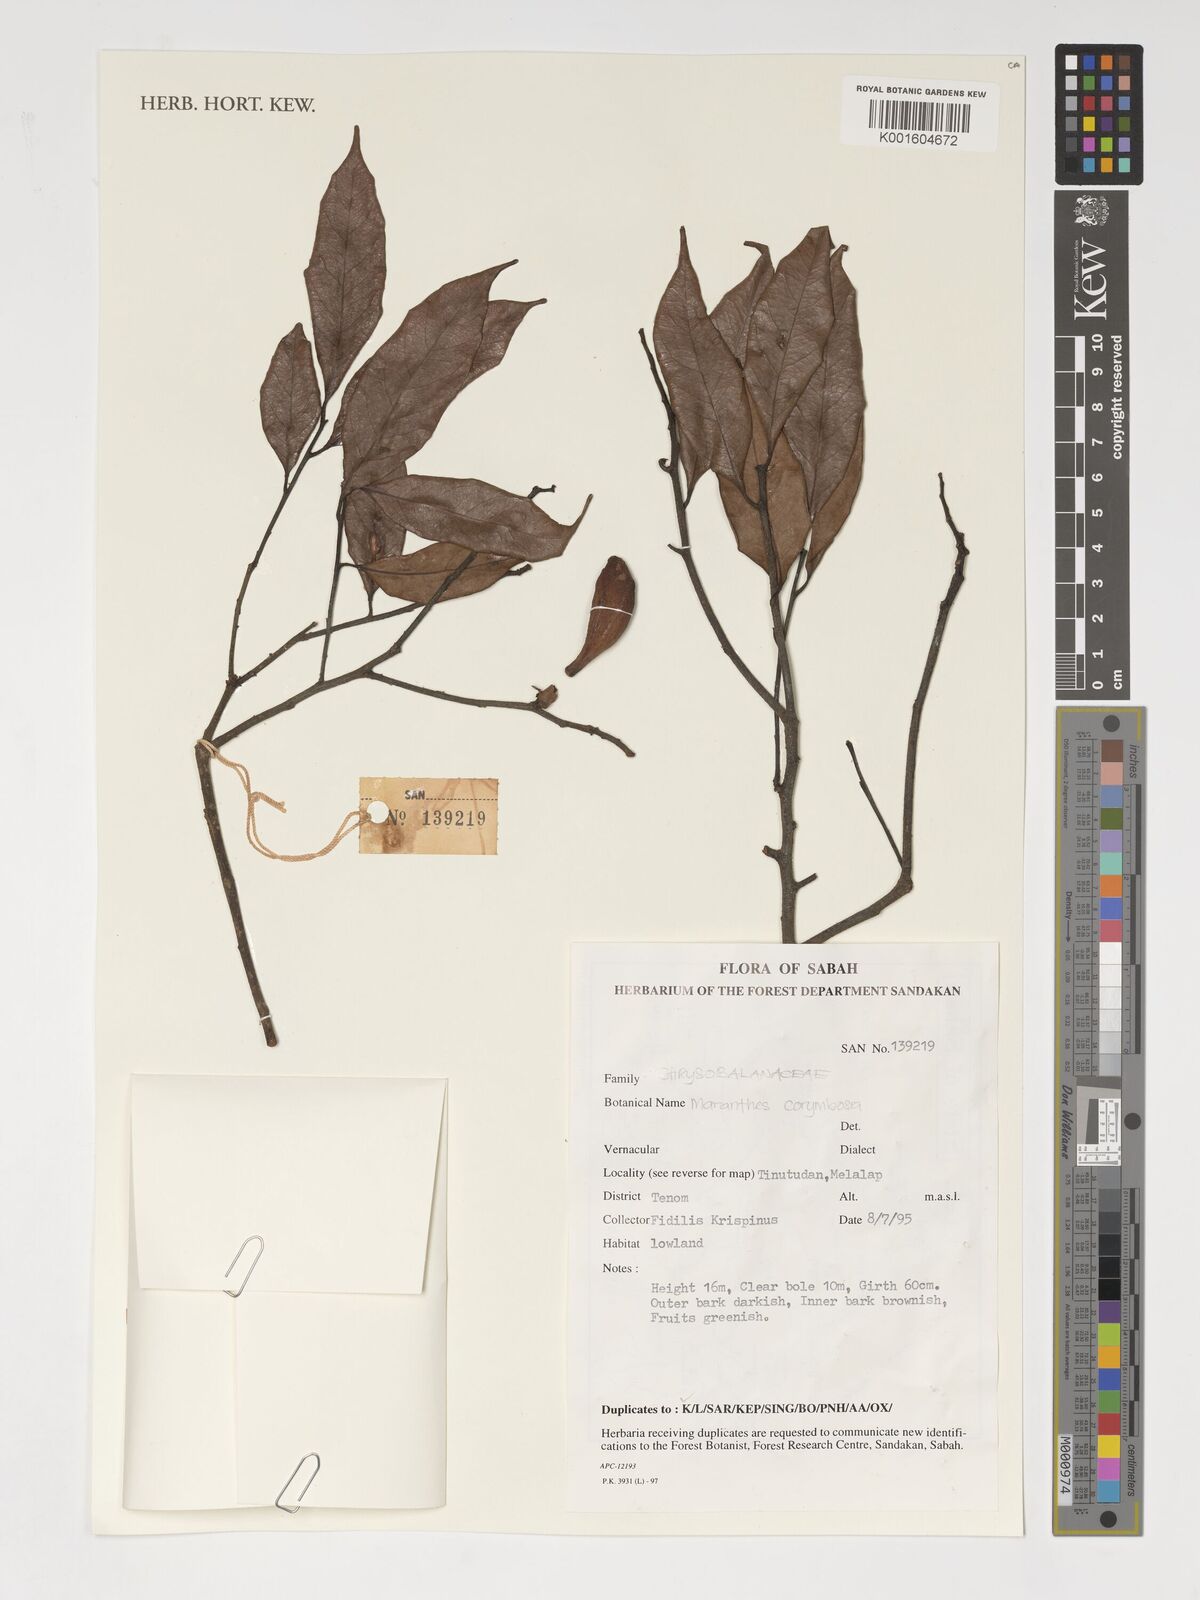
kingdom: Plantae
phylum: Tracheophyta
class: Magnoliopsida
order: Malpighiales
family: Chrysobalanaceae
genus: Maranthes
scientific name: Maranthes corymbosa
